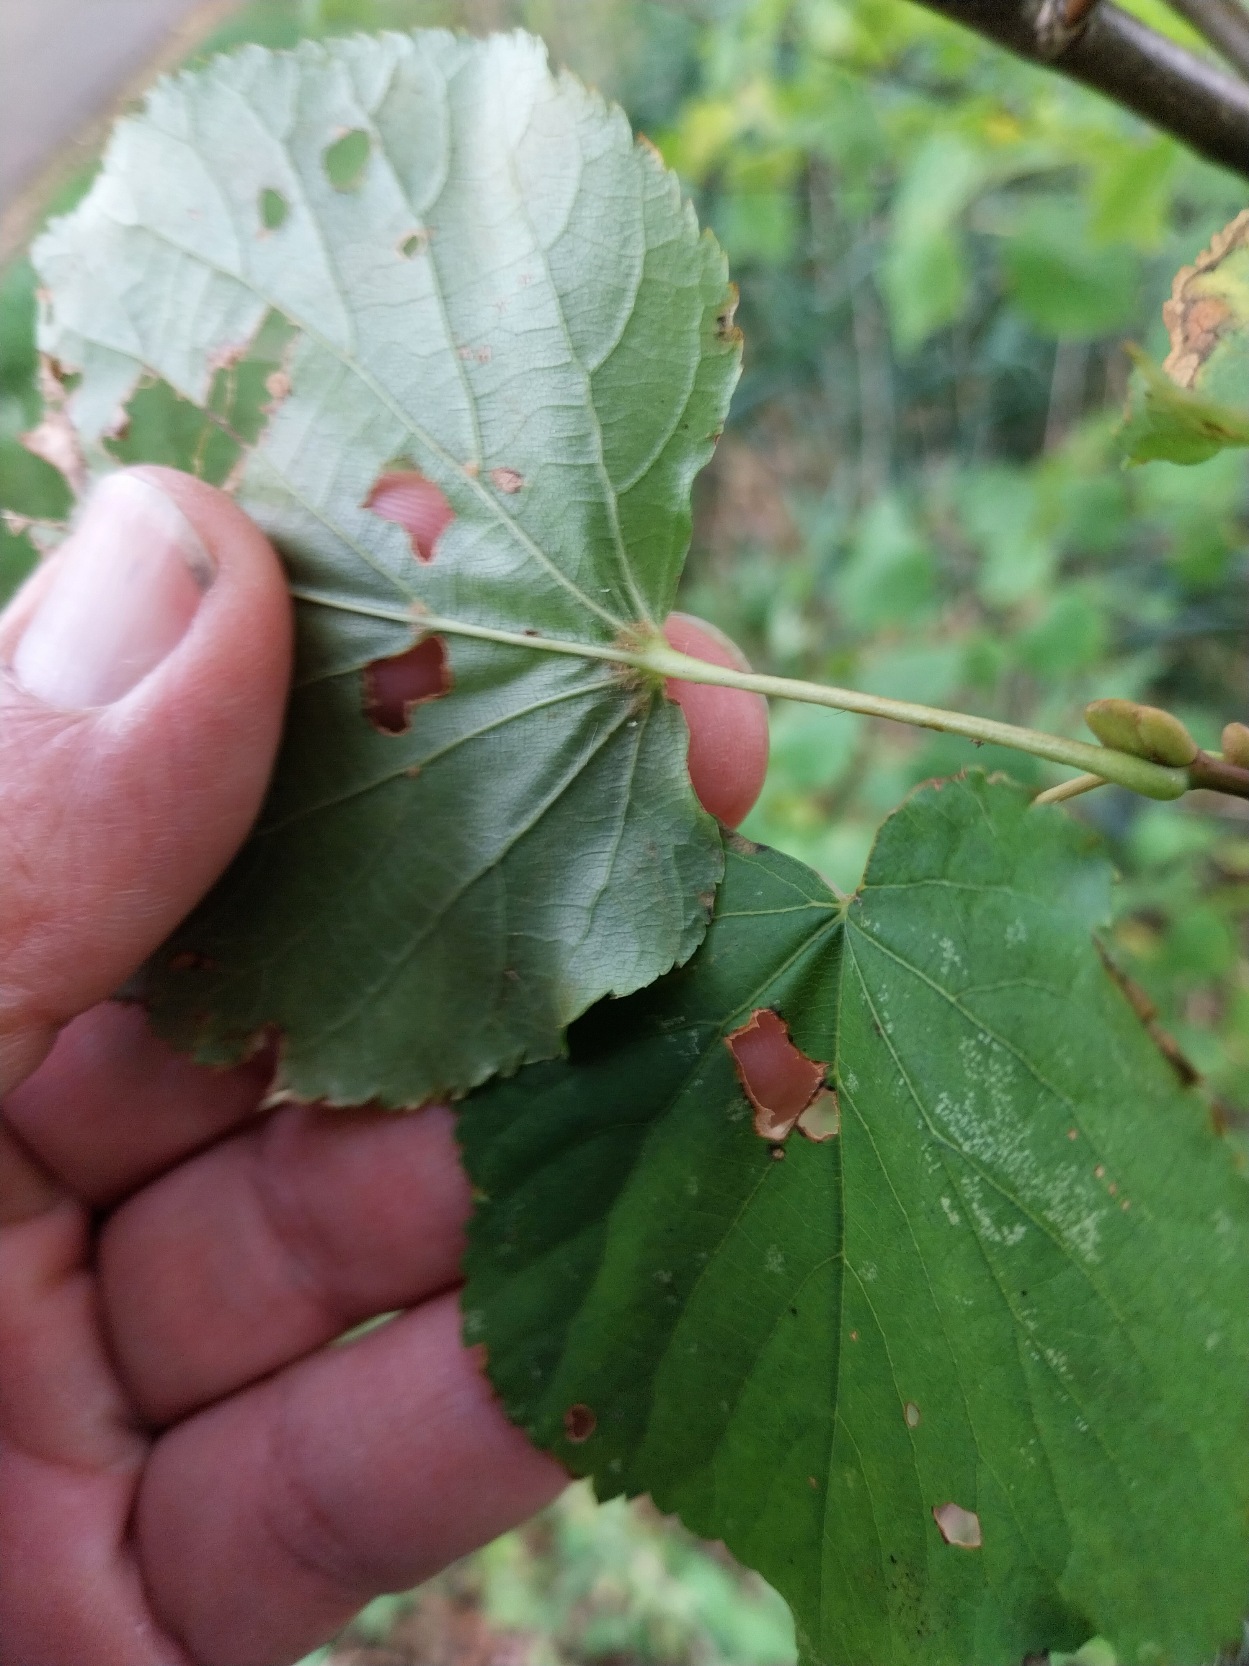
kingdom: Plantae
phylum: Tracheophyta
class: Magnoliopsida
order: Malvales
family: Malvaceae
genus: Tilia
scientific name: Tilia cordata
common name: Småbladet lind
